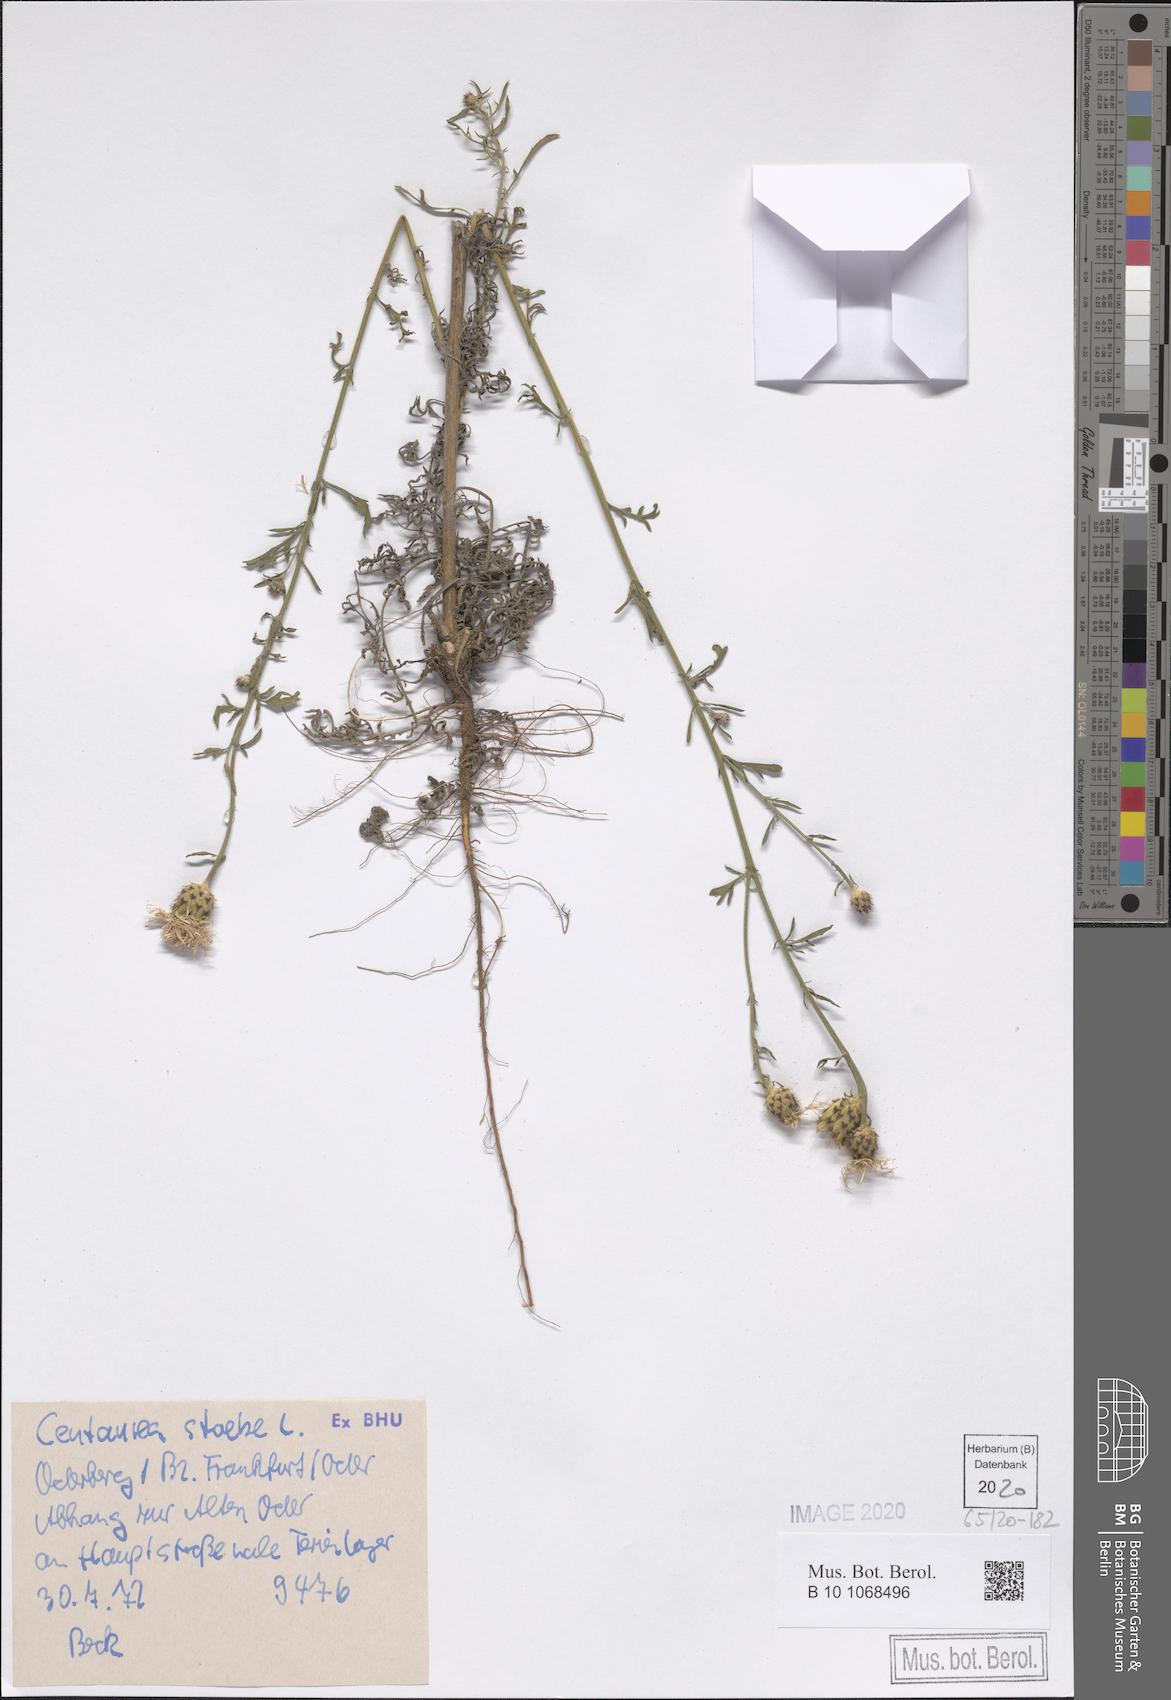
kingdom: Plantae
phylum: Tracheophyta
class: Magnoliopsida
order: Asterales
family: Asteraceae
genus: Centaurea
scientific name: Centaurea stoebe
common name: Spotted knapweed
